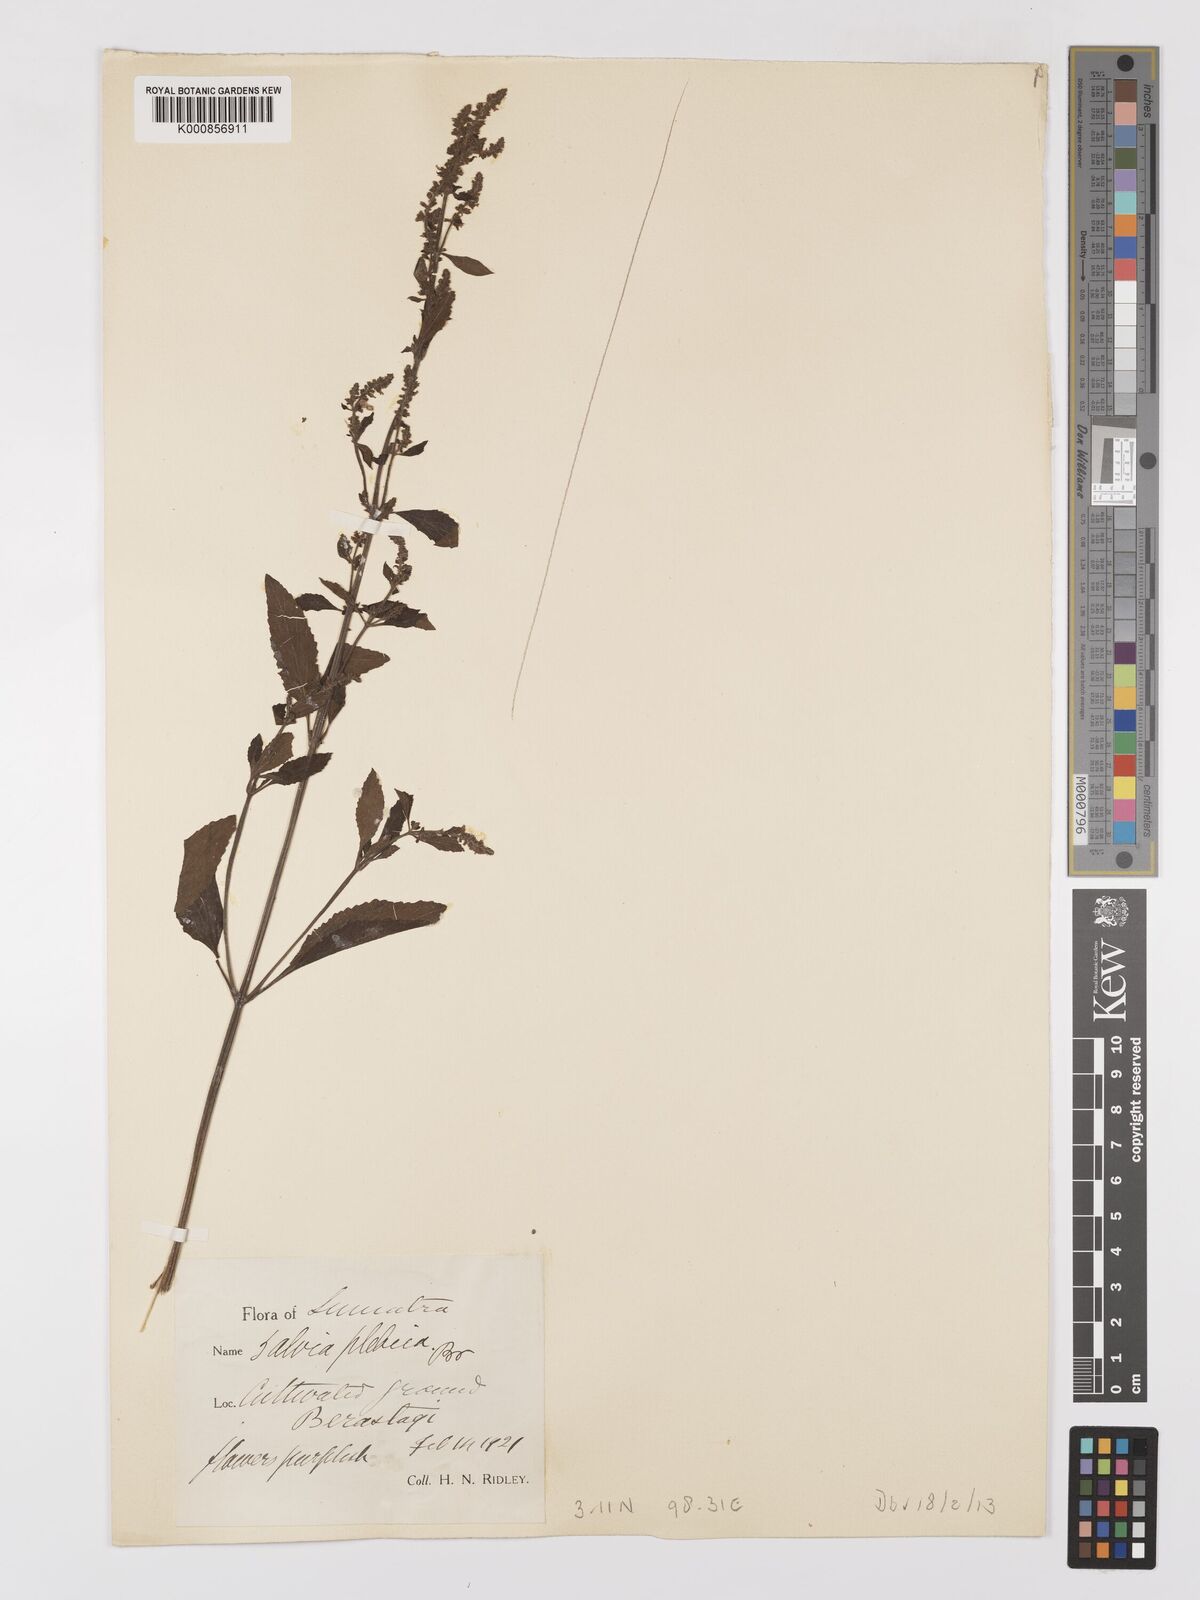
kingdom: Plantae
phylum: Tracheophyta
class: Magnoliopsida
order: Lamiales
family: Lamiaceae
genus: Salvia
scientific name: Salvia plebeia
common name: Australian sage
